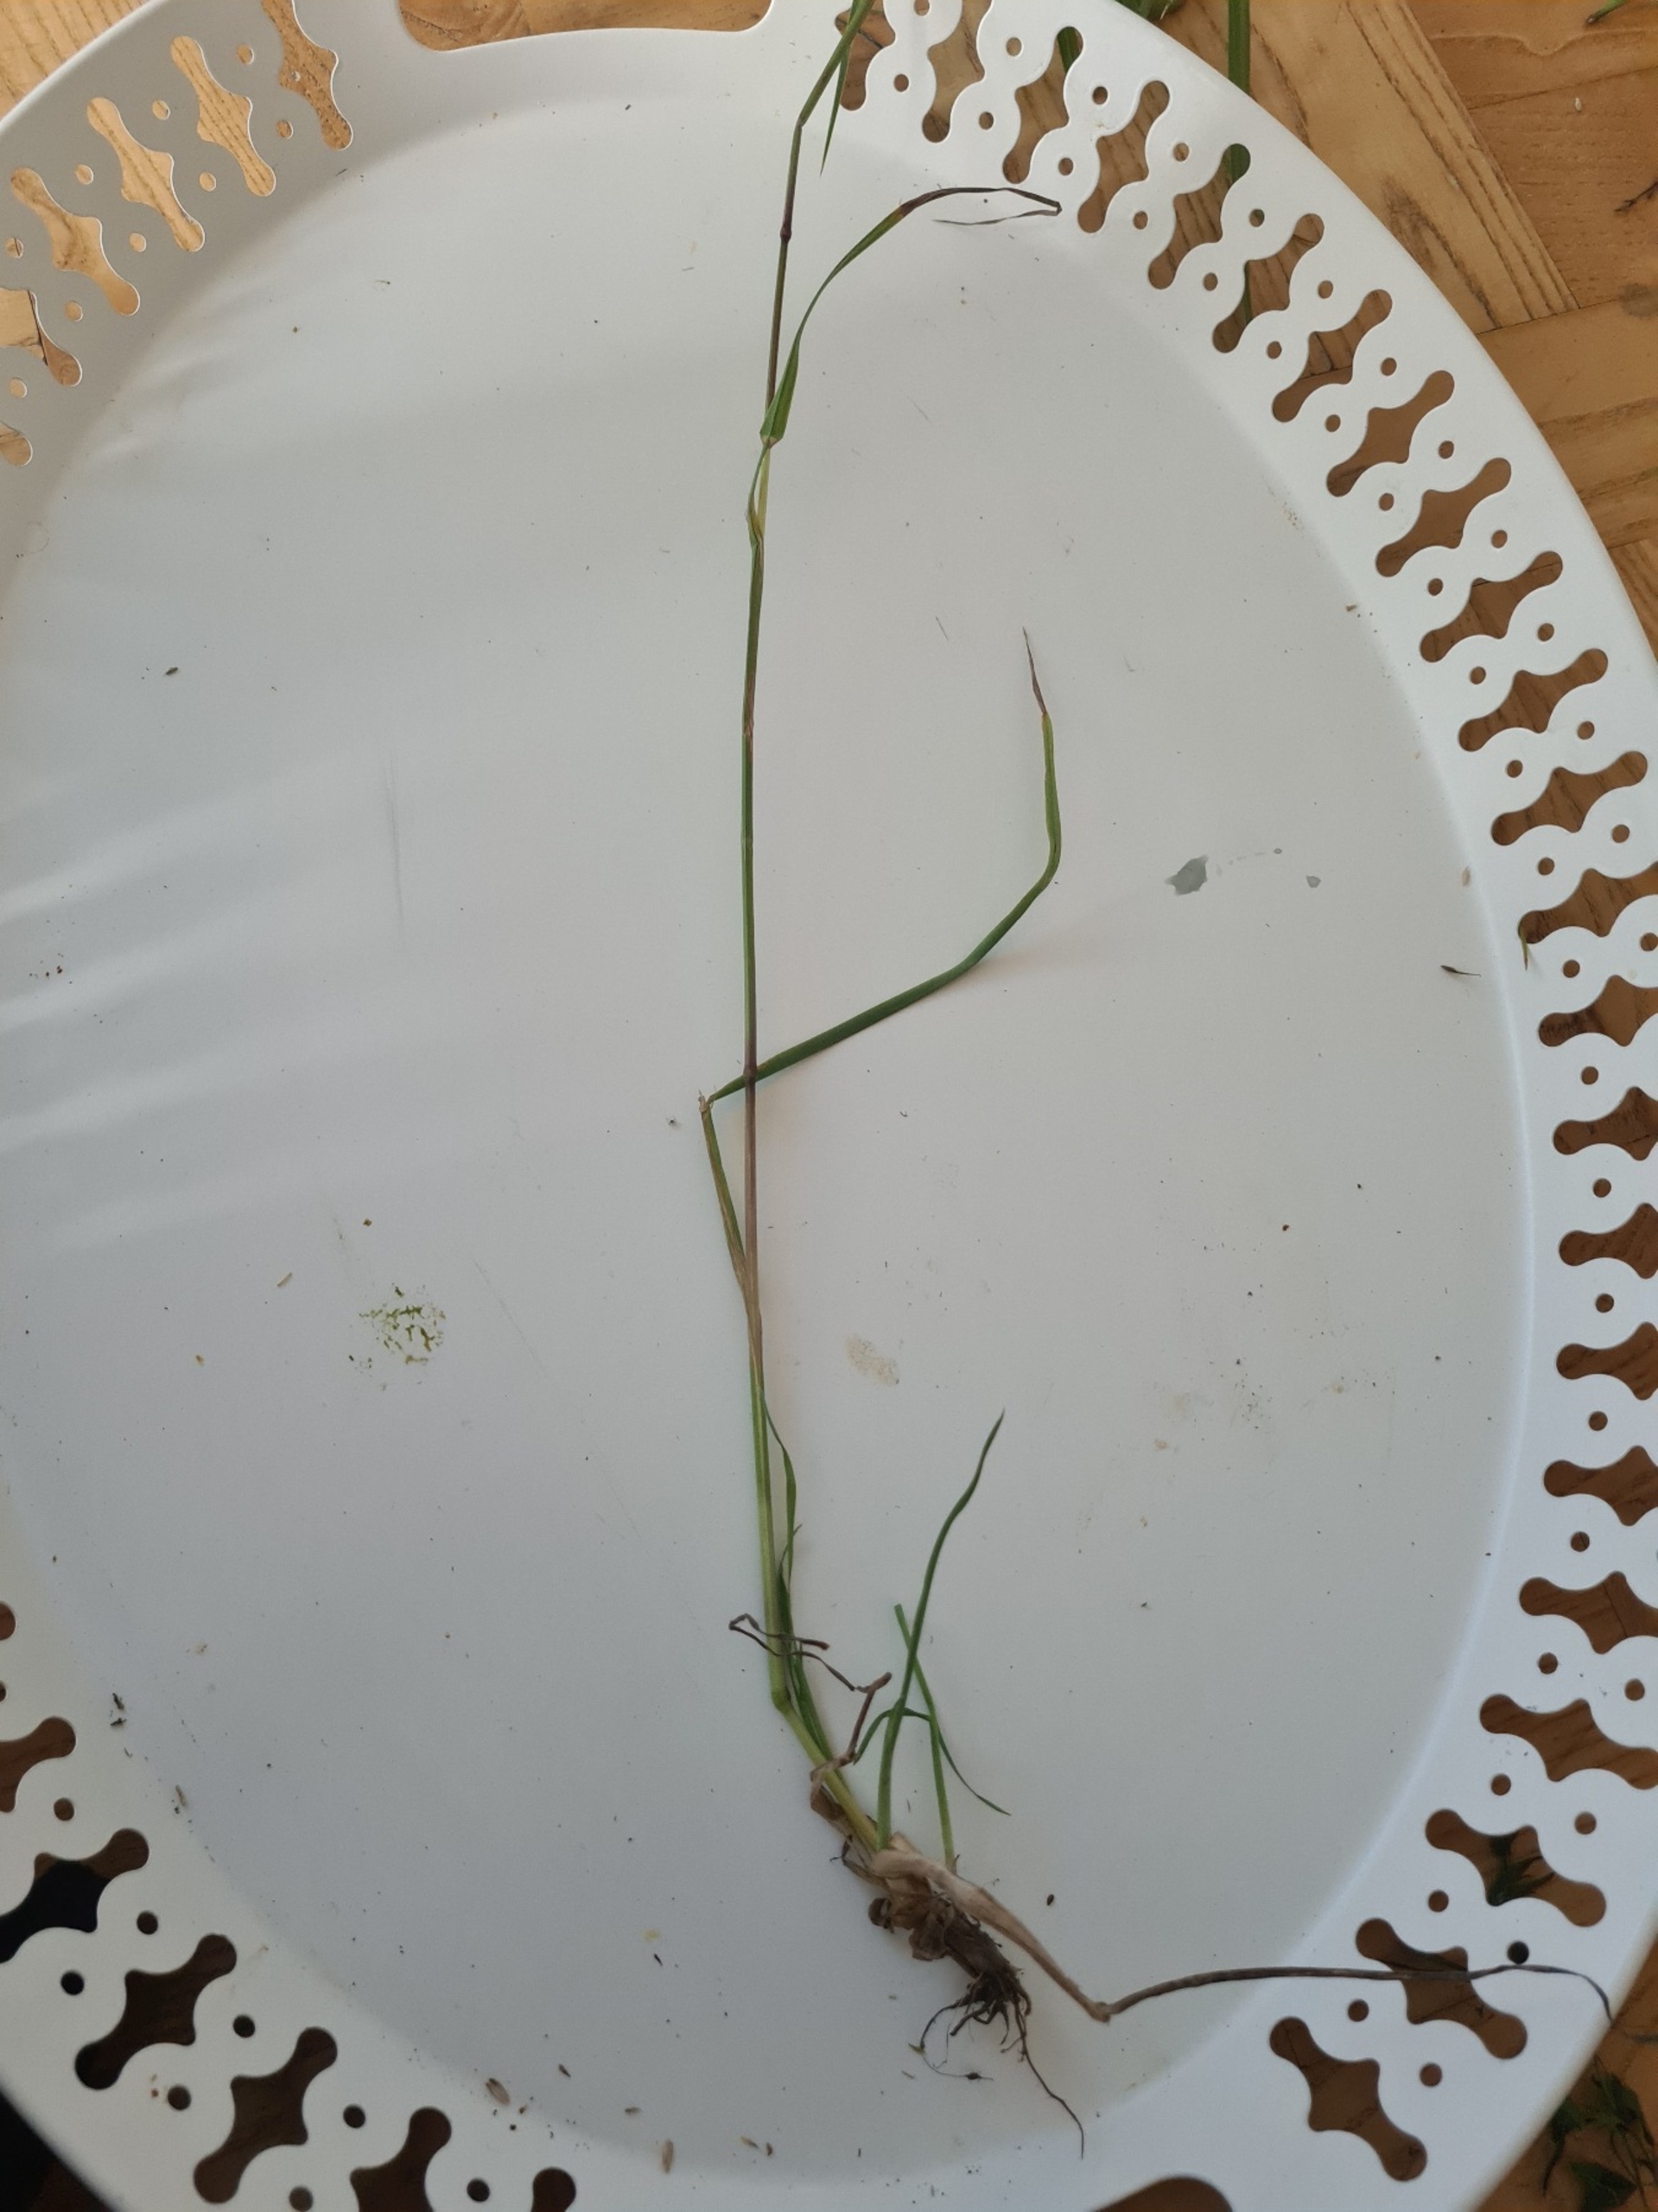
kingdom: Plantae
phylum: Tracheophyta
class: Liliopsida
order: Poales
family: Poaceae
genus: Dactylis
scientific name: Dactylis glomerata
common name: Almindelig hundegræs
